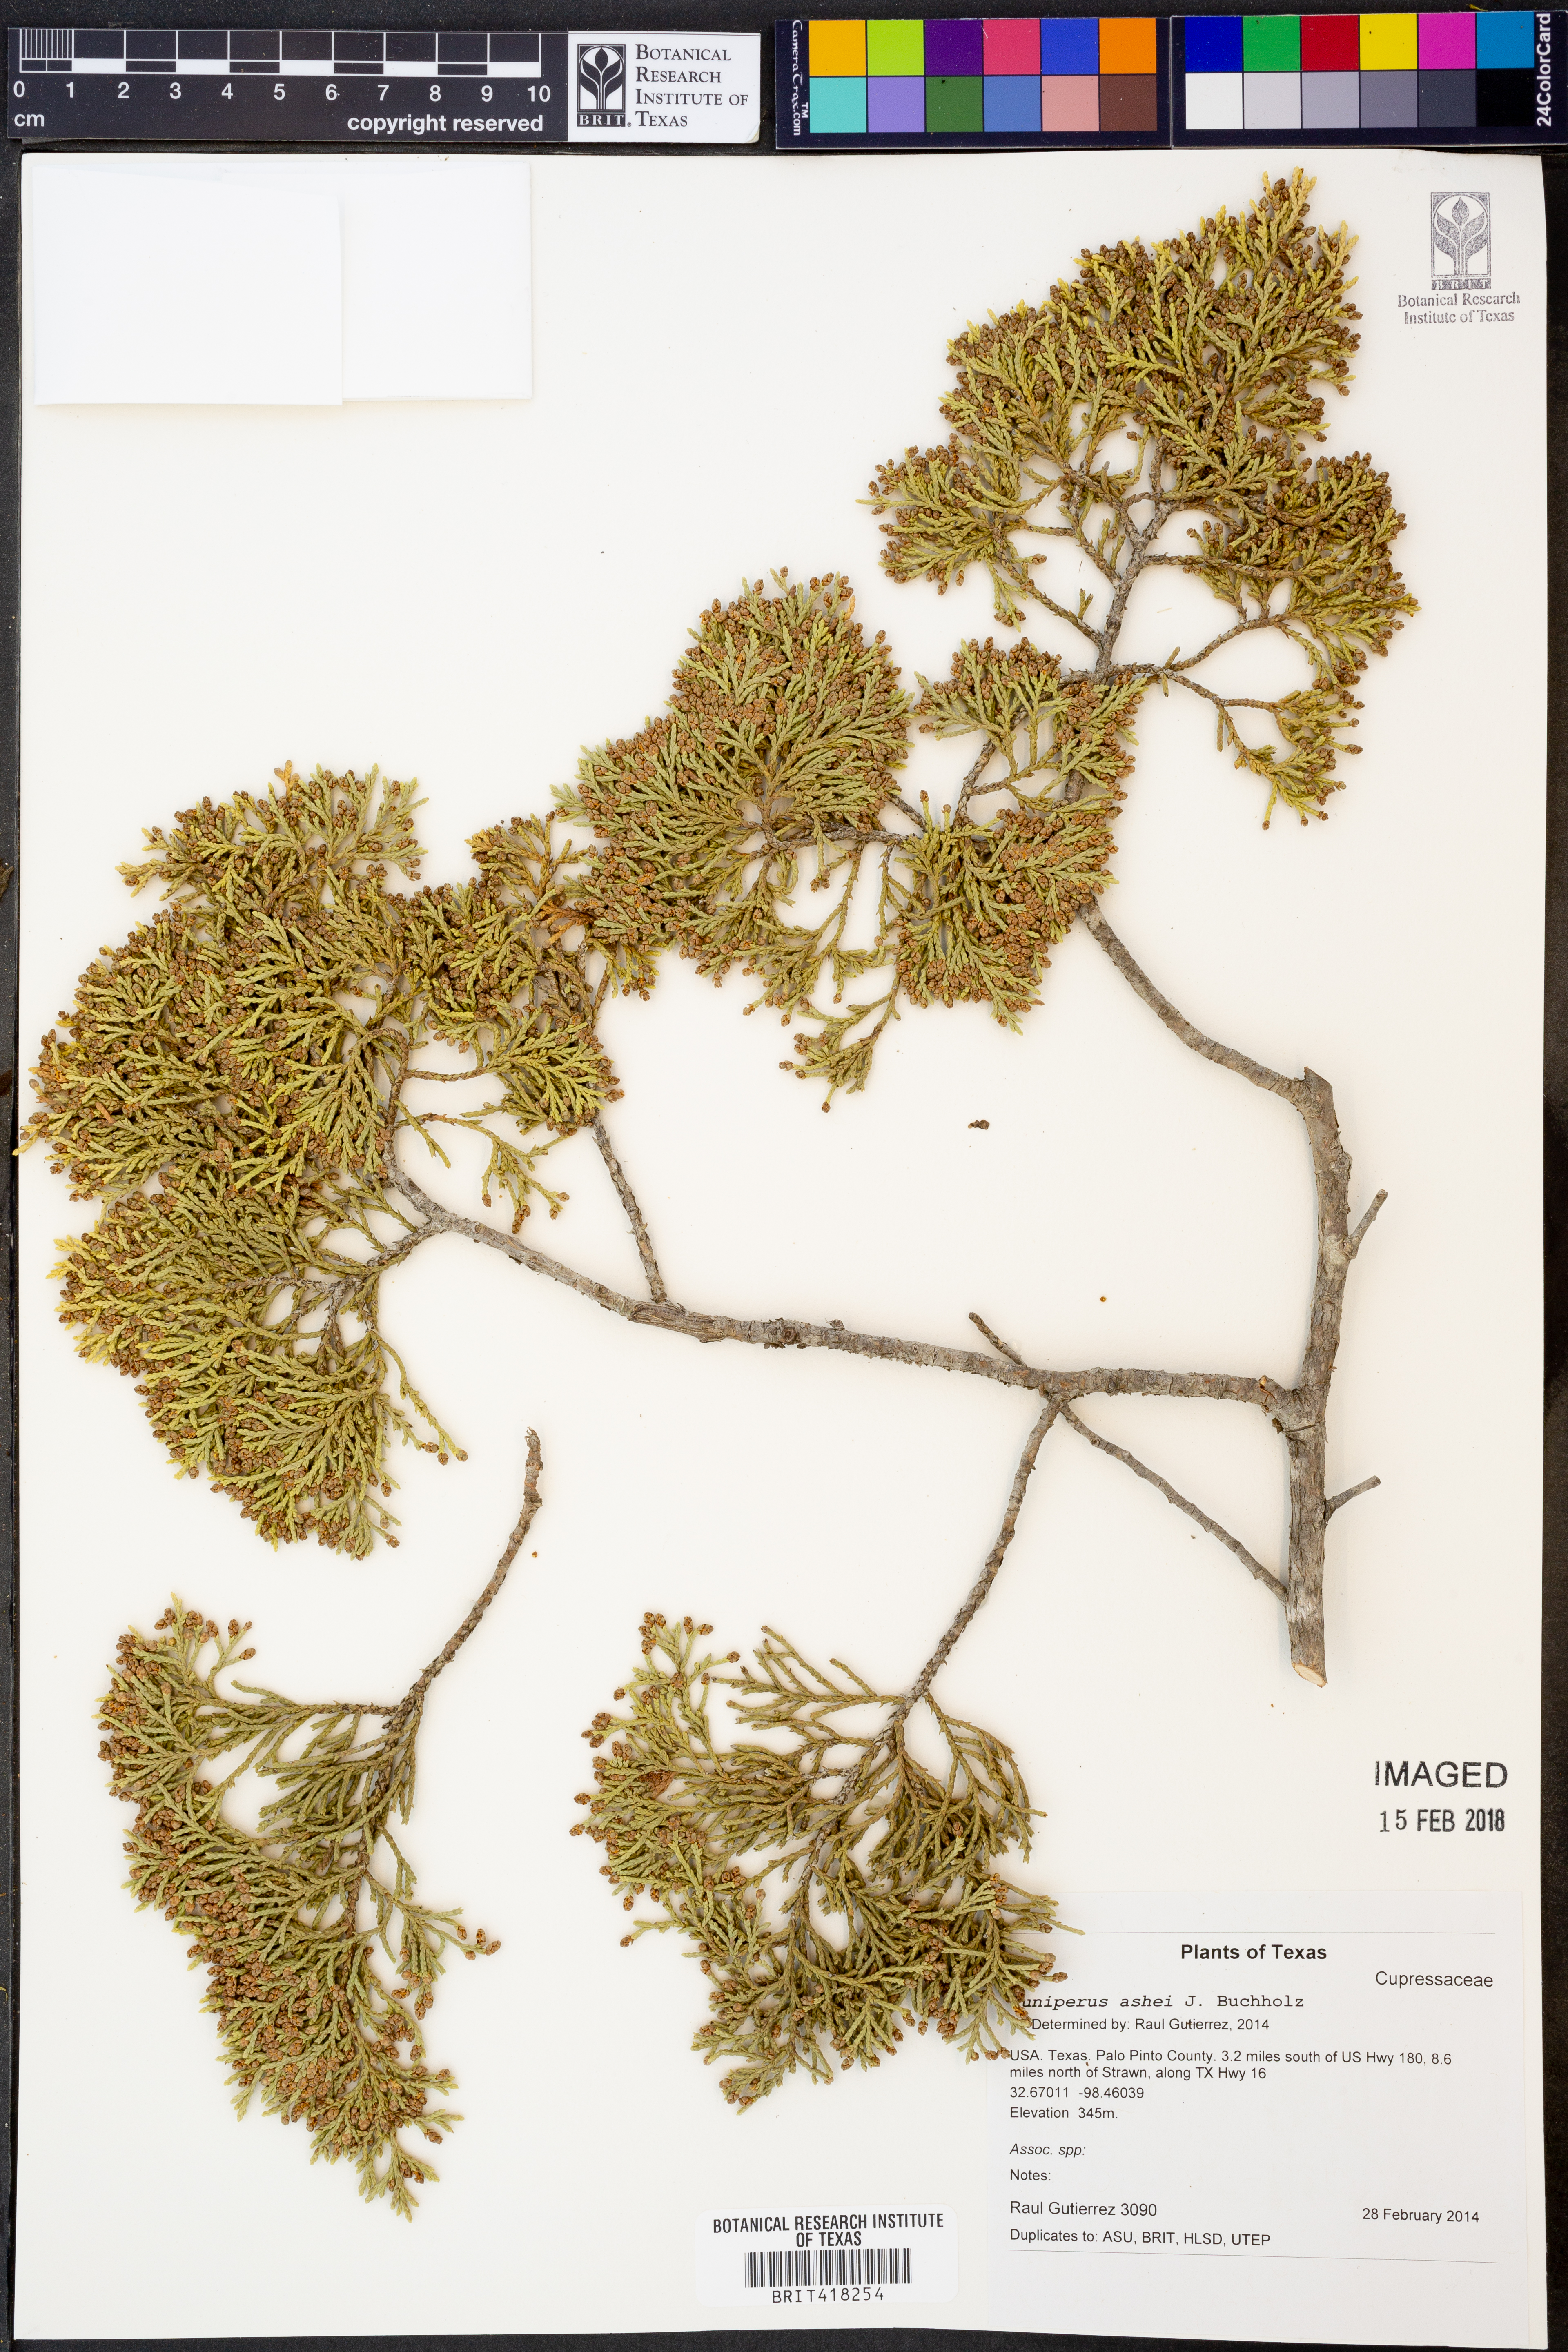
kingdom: Plantae
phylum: Tracheophyta
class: Pinopsida
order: Pinales
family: Cupressaceae
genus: Juniperus
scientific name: Juniperus ashei
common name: Mexican juniper
